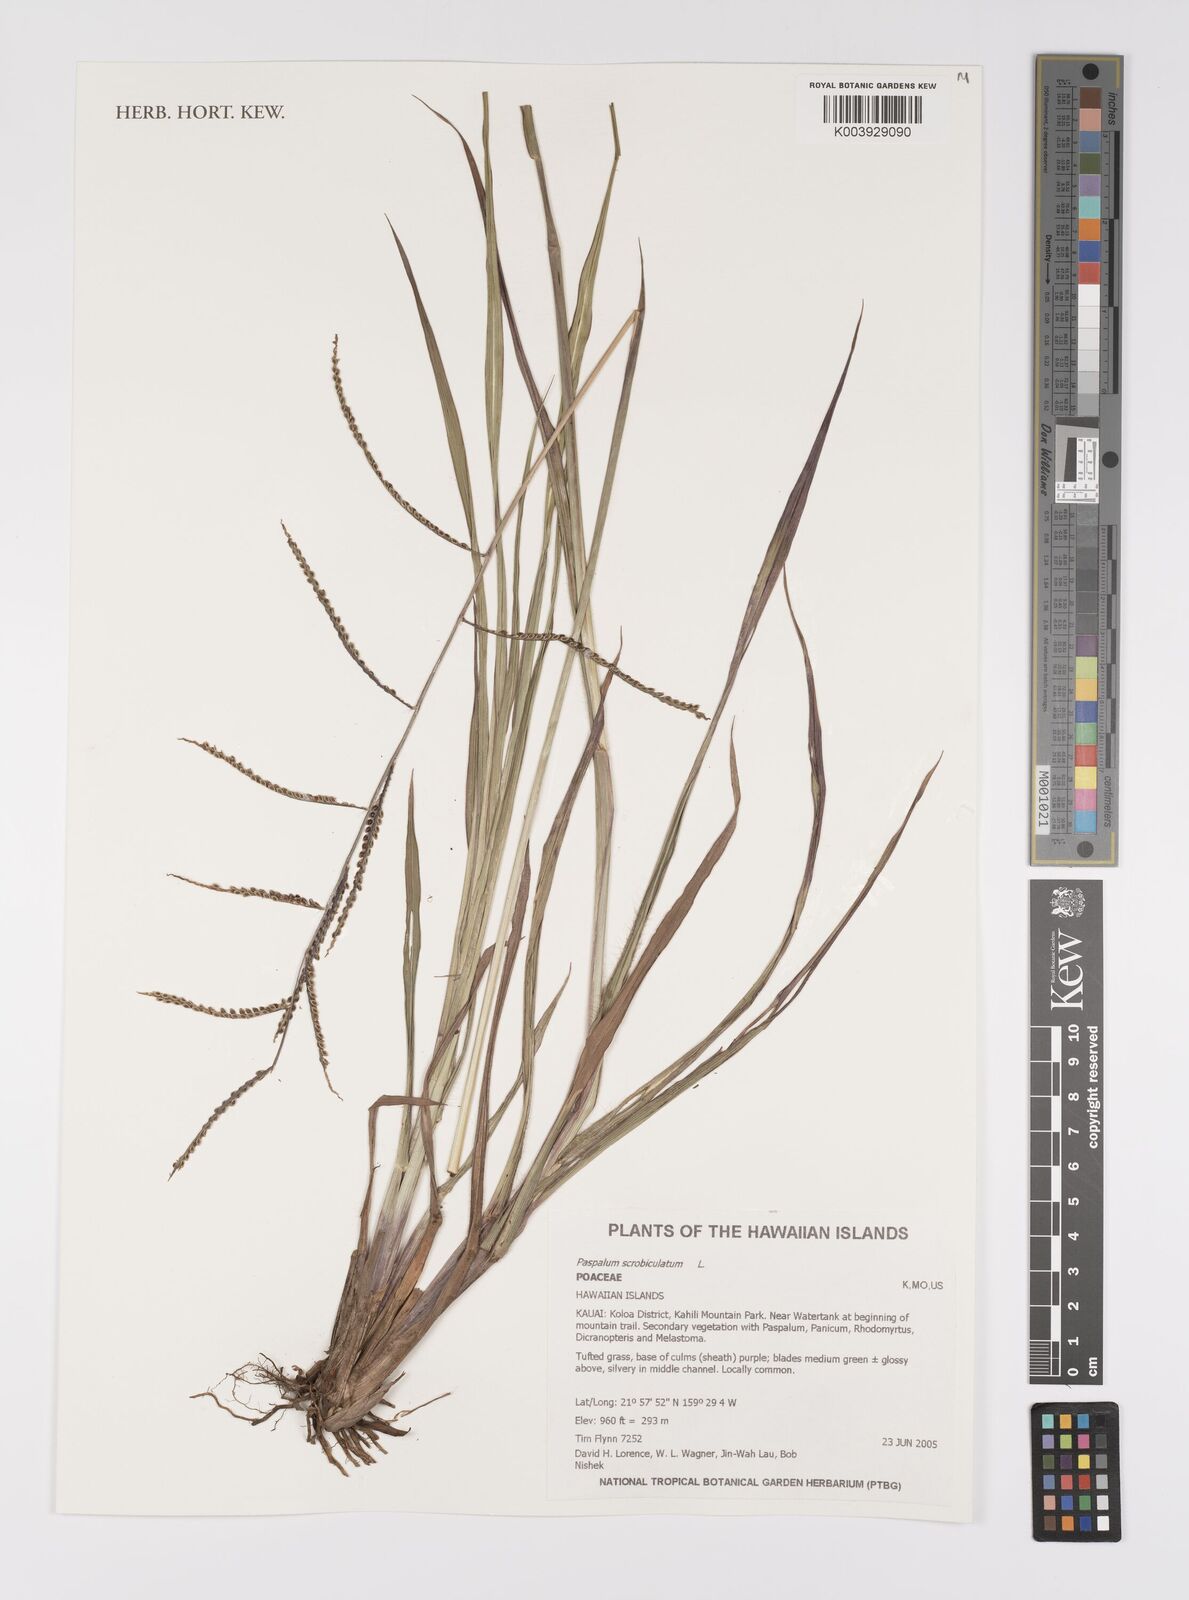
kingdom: Plantae
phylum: Tracheophyta
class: Liliopsida
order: Poales
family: Poaceae
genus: Paspalum
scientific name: Paspalum scrobiculatum
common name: Kodo millet
